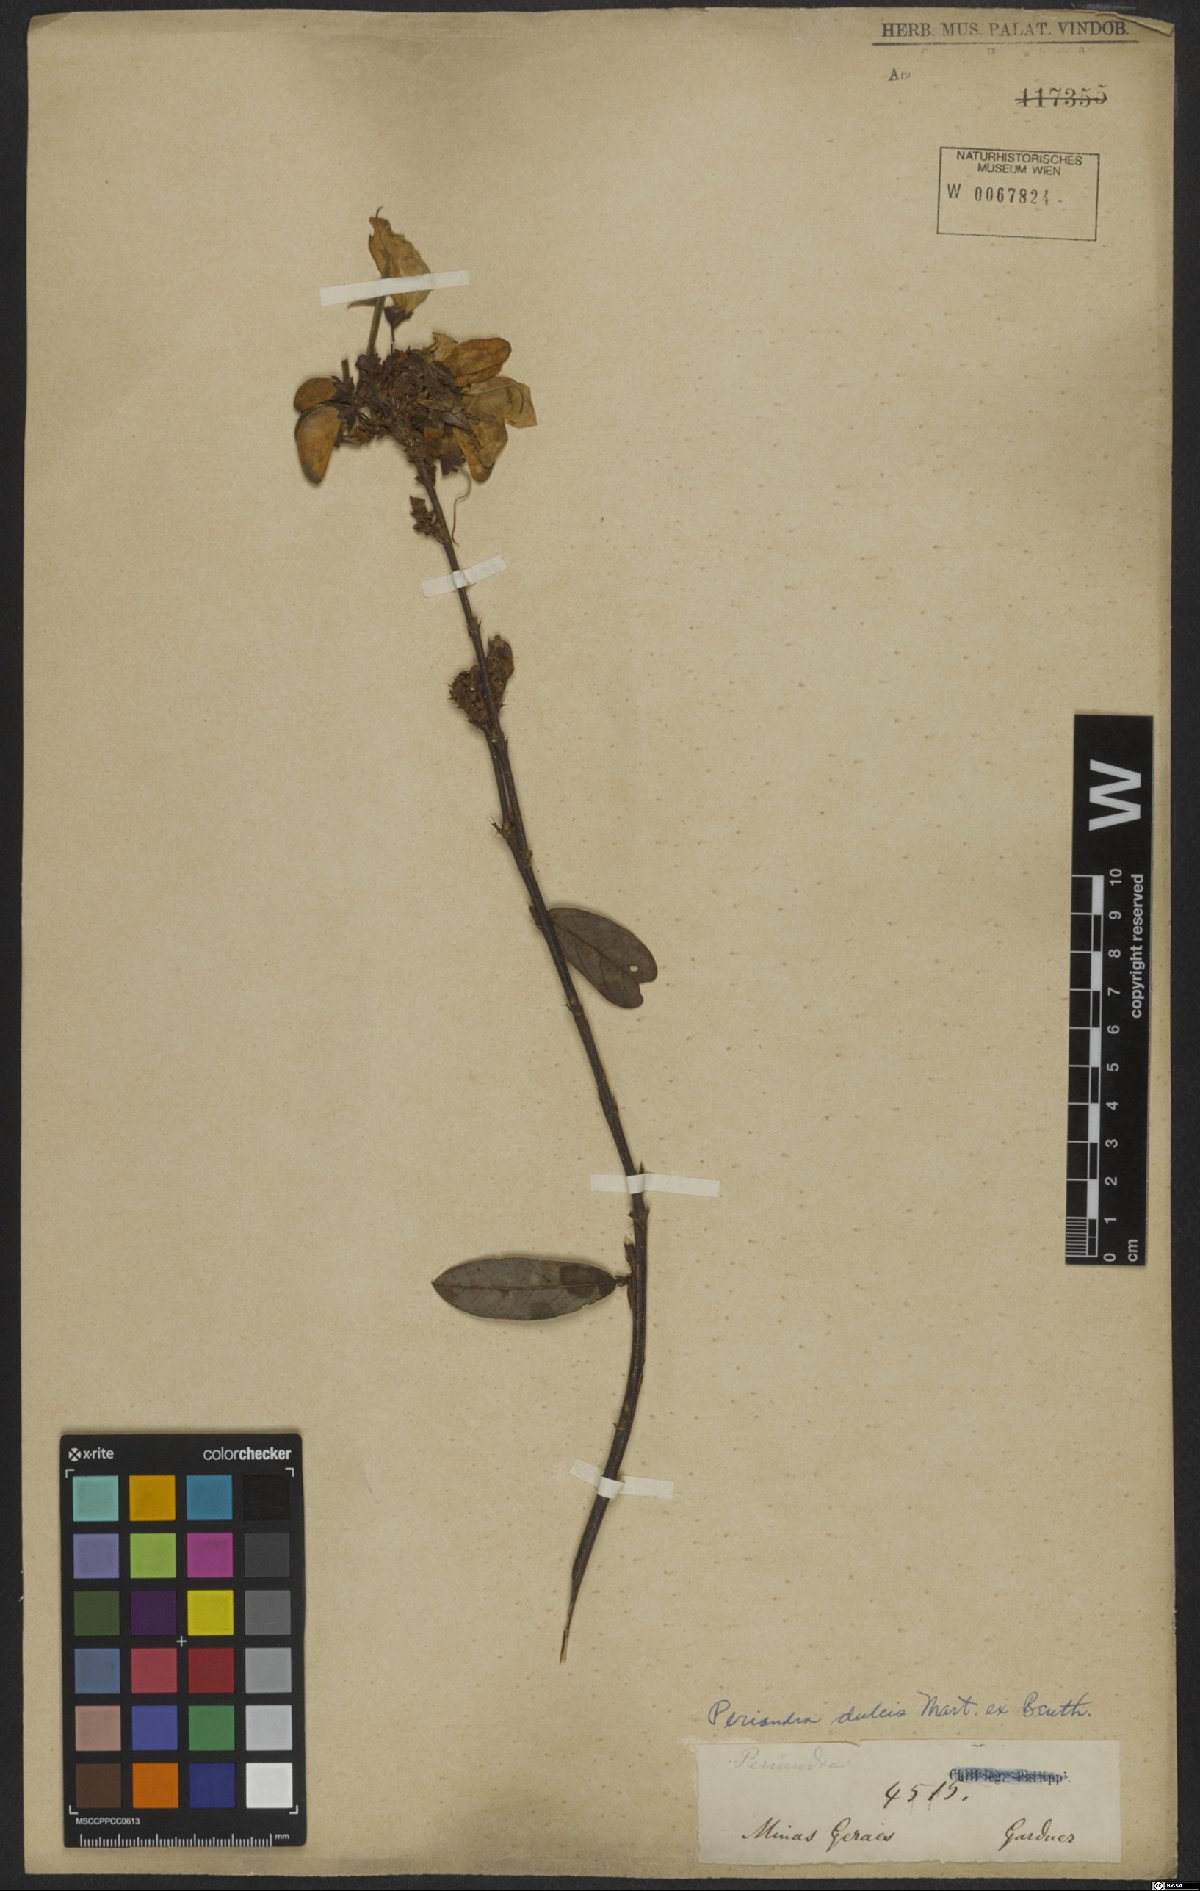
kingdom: Plantae
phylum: Tracheophyta
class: Magnoliopsida
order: Fabales
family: Fabaceae
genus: Periandra
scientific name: Periandra mediterranea
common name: Brazilian licorice
